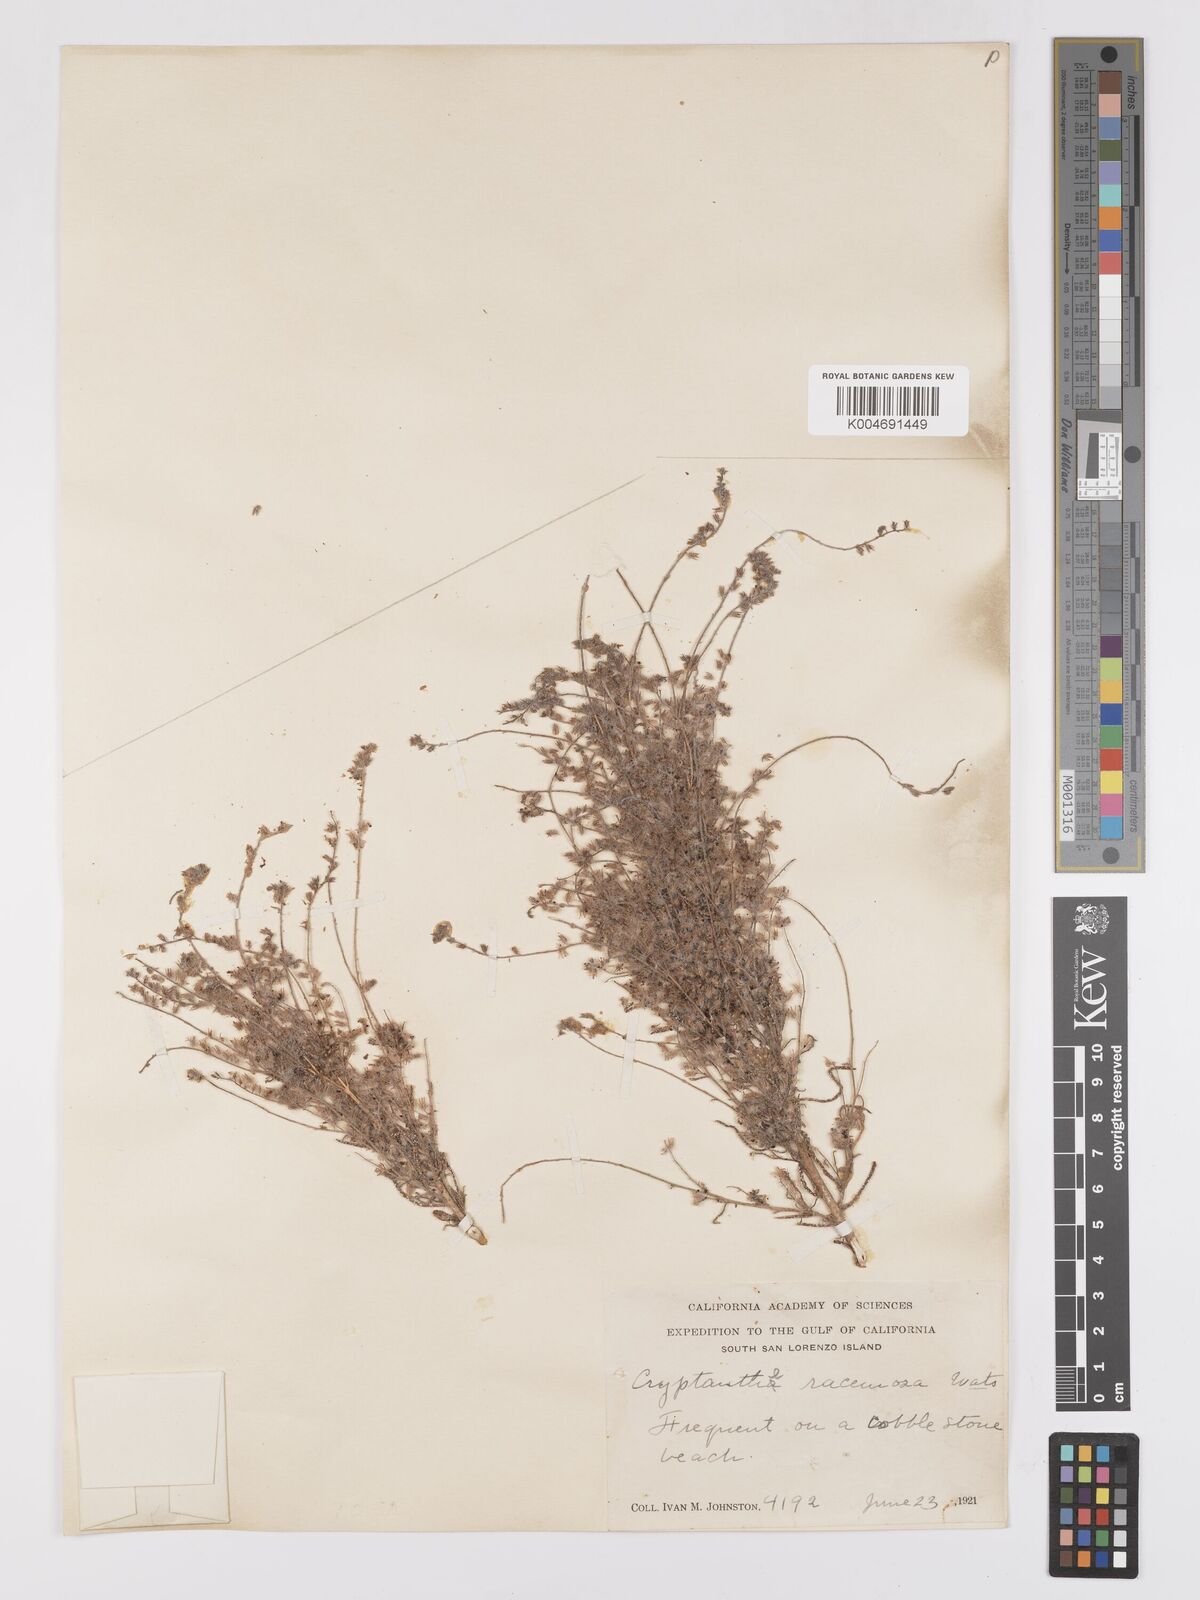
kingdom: Plantae
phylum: Tracheophyta
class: Magnoliopsida
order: Boraginales
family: Boraginaceae
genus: Johnstonella
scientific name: Johnstonella racemosa
